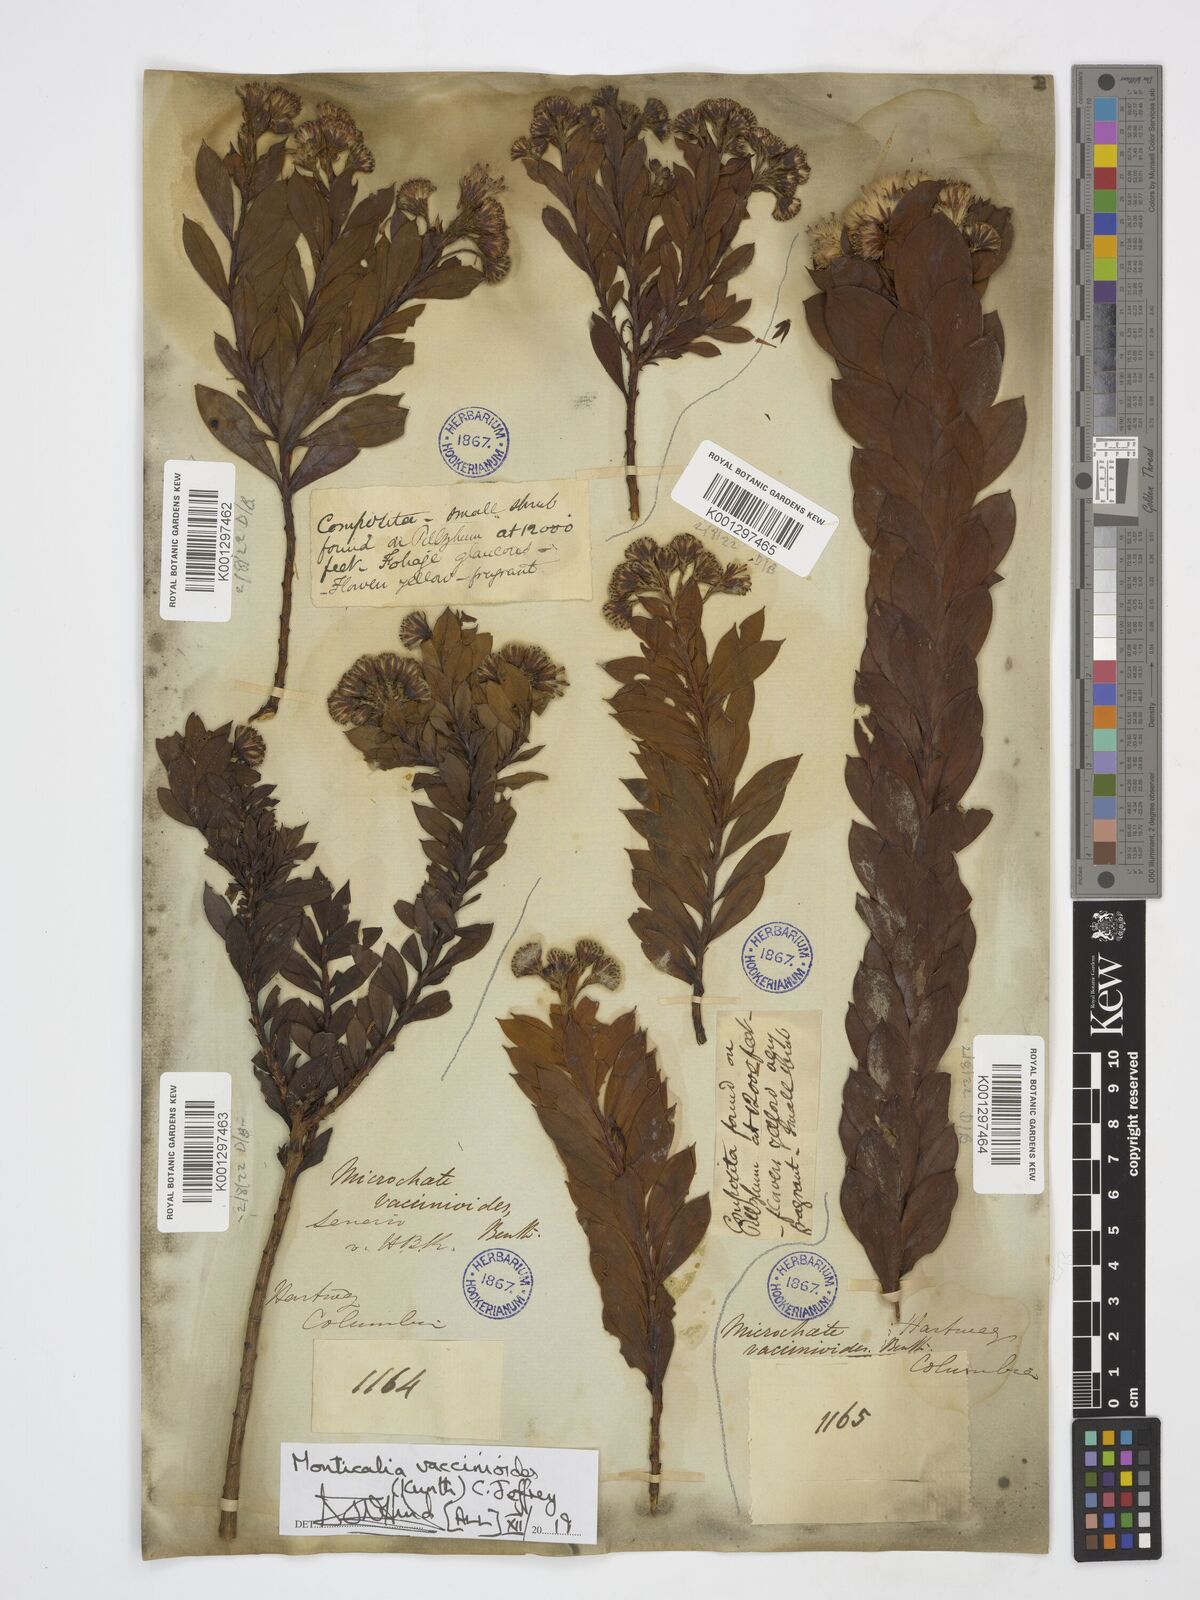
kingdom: Plantae
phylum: Tracheophyta
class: Magnoliopsida
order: Asterales
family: Asteraceae
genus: Monticalia
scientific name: Monticalia vaccinioides
